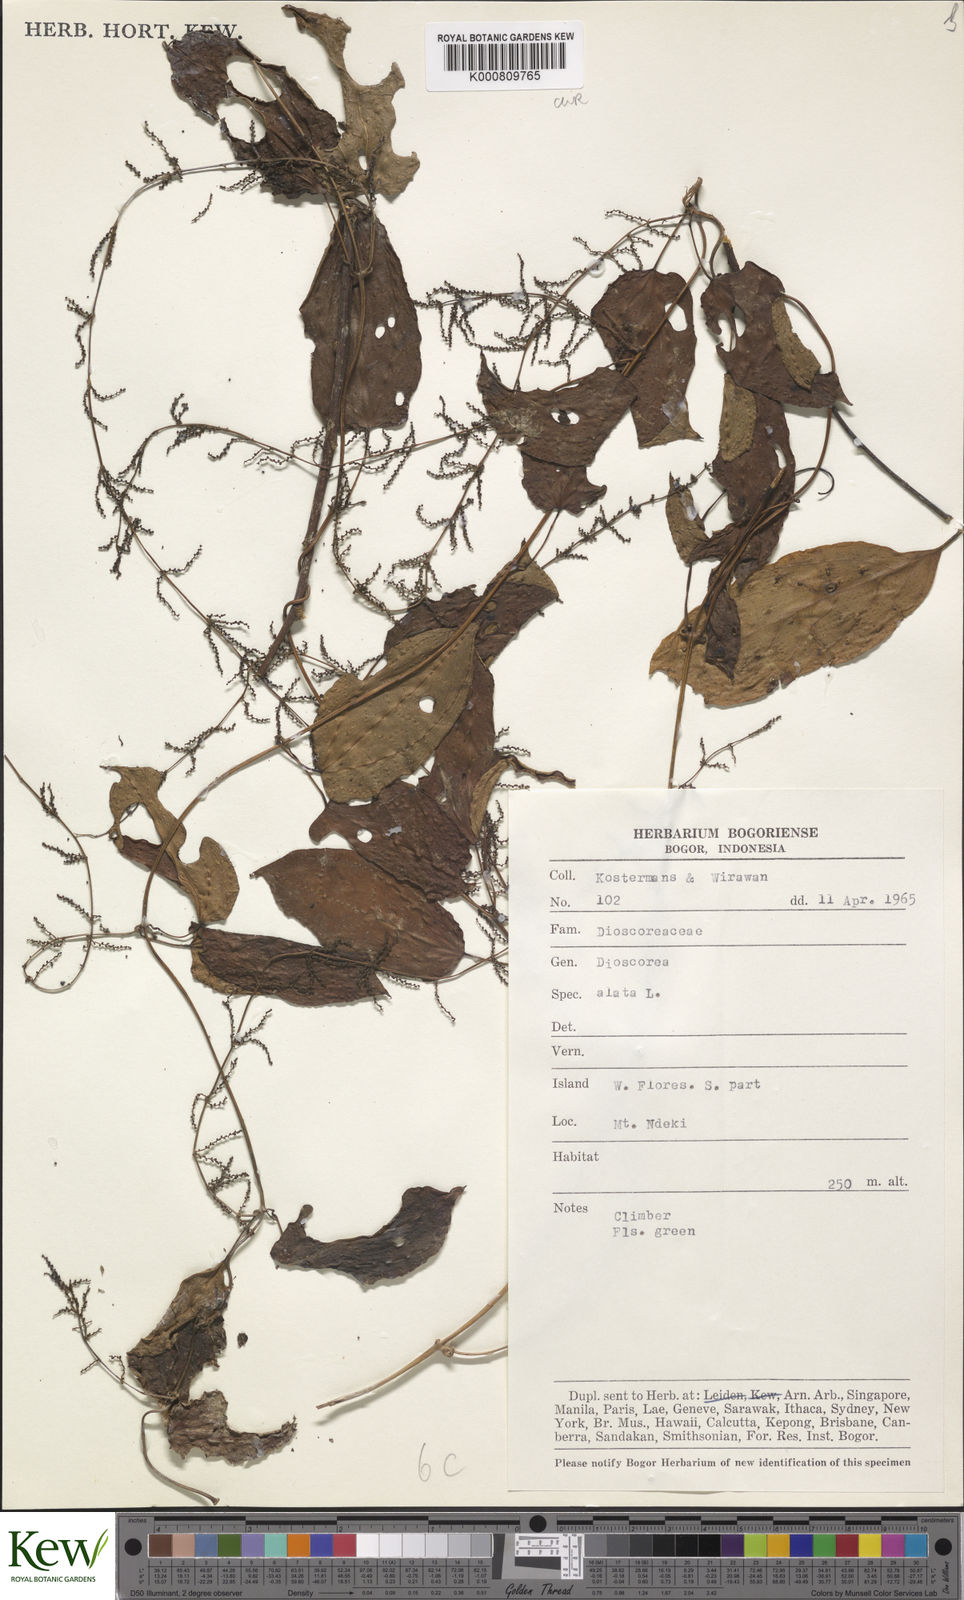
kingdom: Plantae
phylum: Tracheophyta
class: Liliopsida
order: Dioscoreales
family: Dioscoreaceae
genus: Dioscorea
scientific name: Dioscorea alata
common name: Water yam
